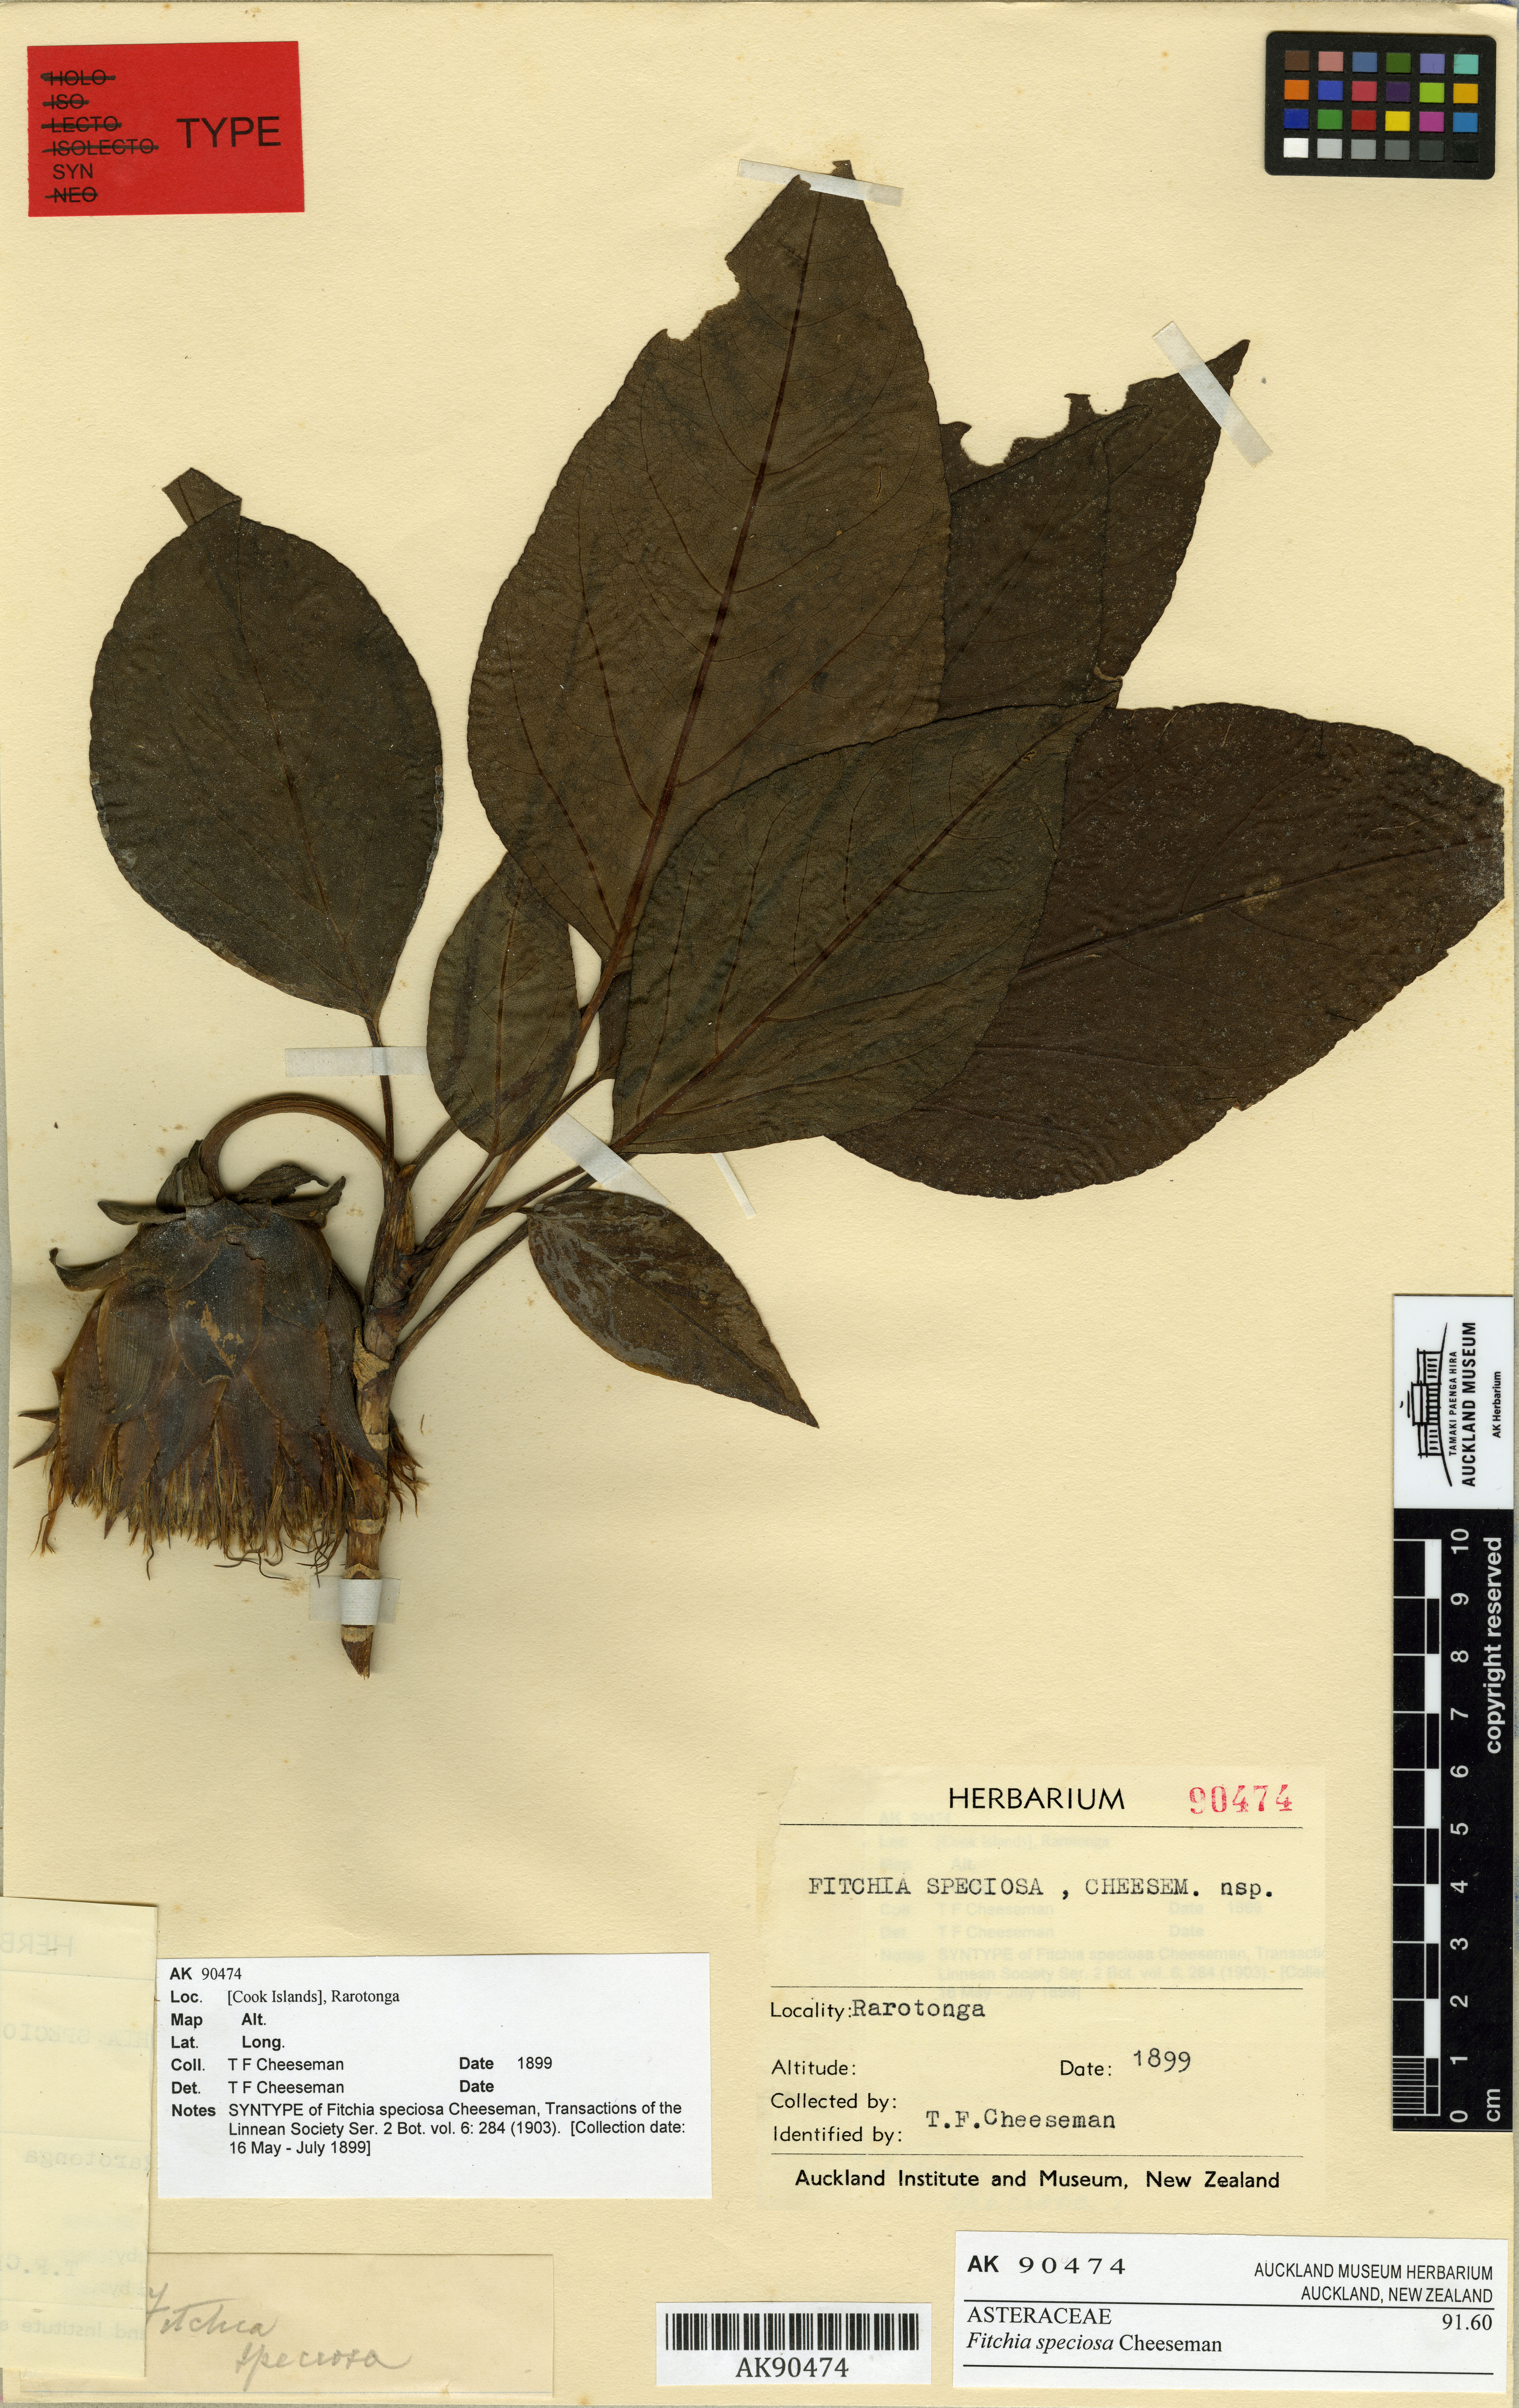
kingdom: Plantae
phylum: Tracheophyta
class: Magnoliopsida
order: Asterales
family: Asteraceae
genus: Fitchia
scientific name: Fitchia speciosa
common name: Burr daisytree
